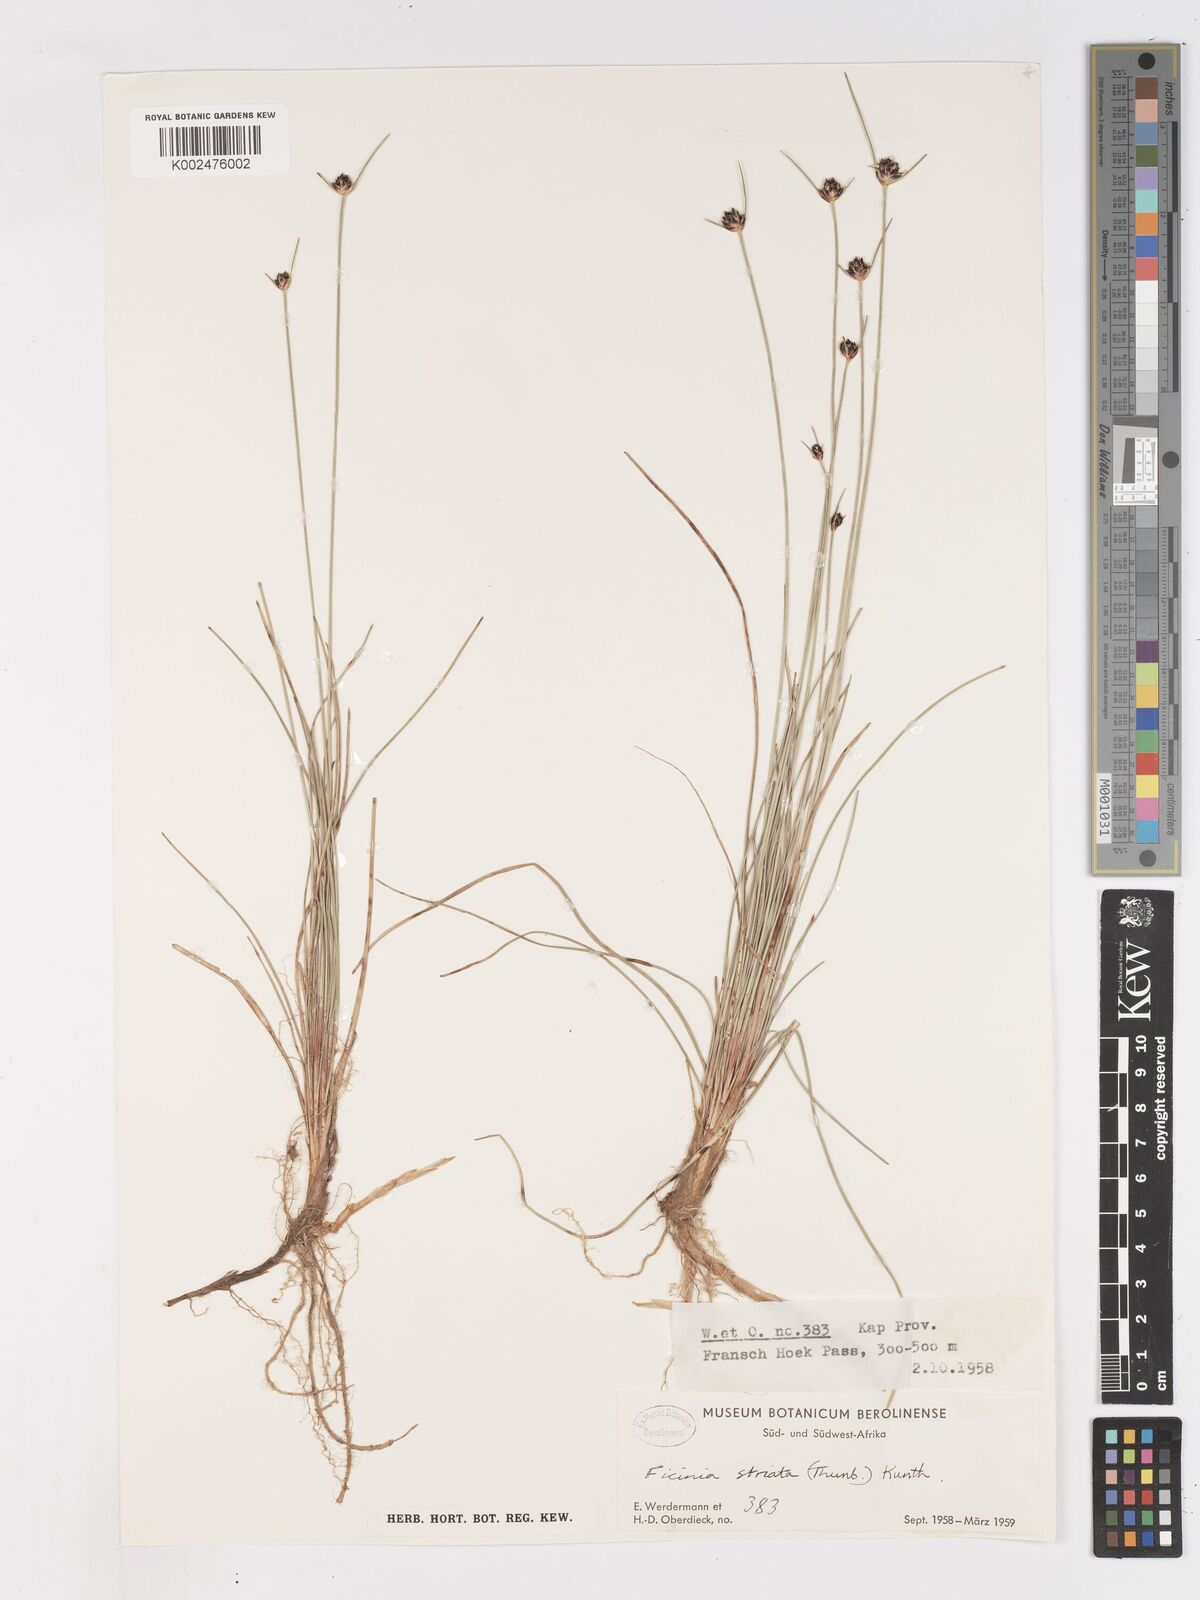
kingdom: Plantae
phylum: Tracheophyta
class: Liliopsida
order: Poales
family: Cyperaceae
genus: Ficinia
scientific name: Ficinia indica
